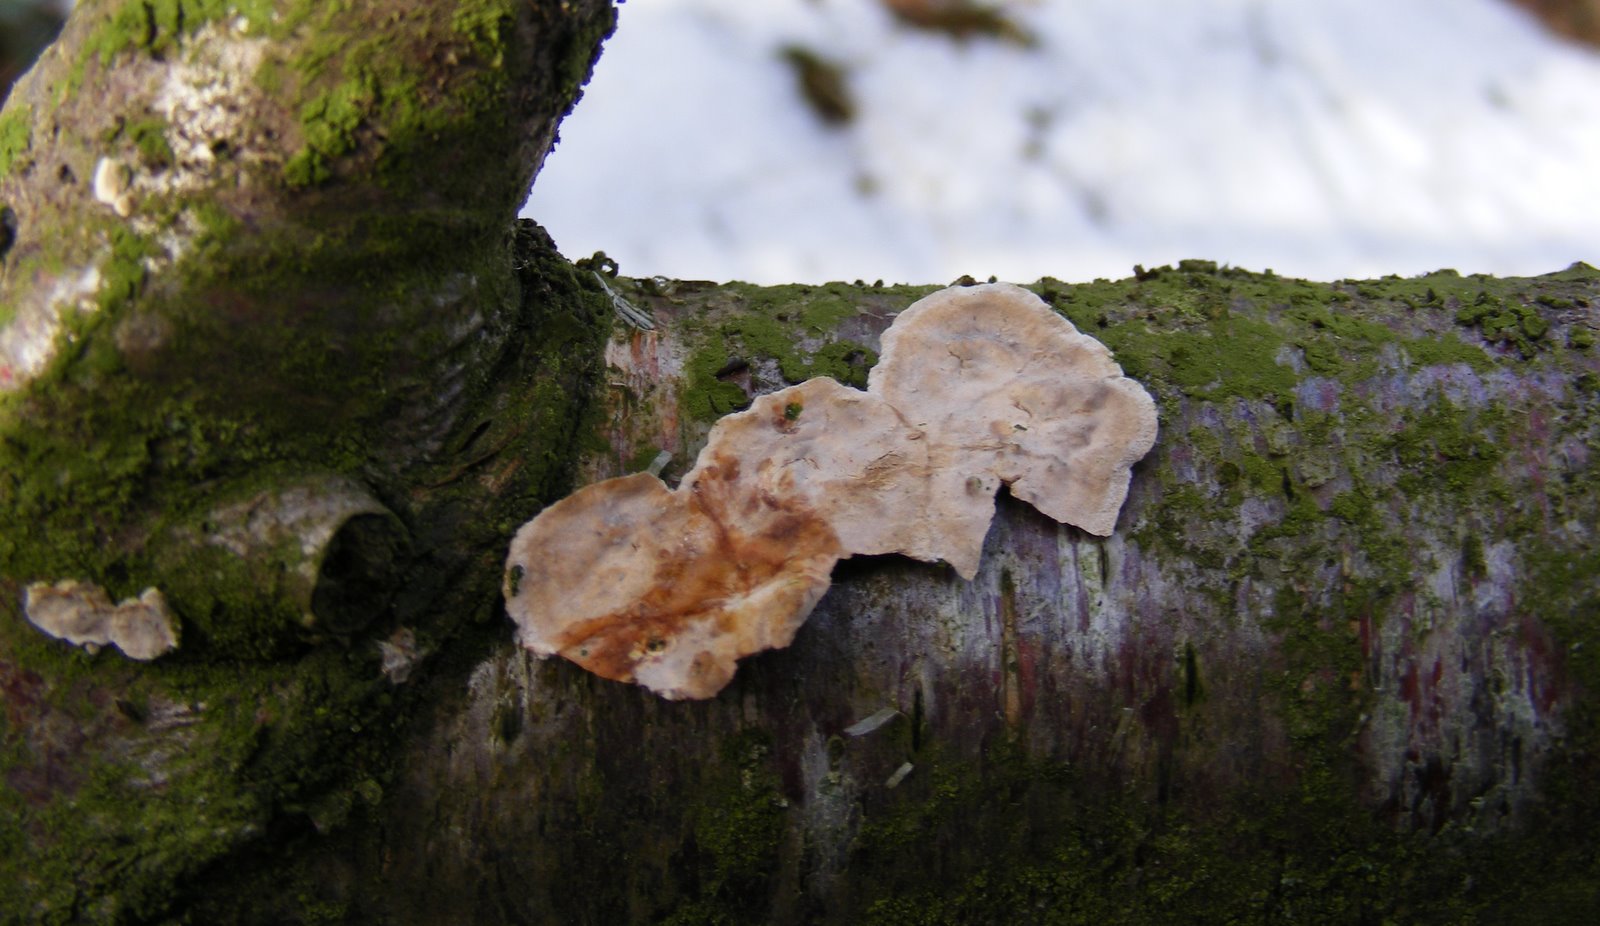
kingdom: Fungi
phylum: Basidiomycota
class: Agaricomycetes
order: Russulales
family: Stereaceae
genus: Stereum
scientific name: Stereum rugosum
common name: rynket lædersvamp
